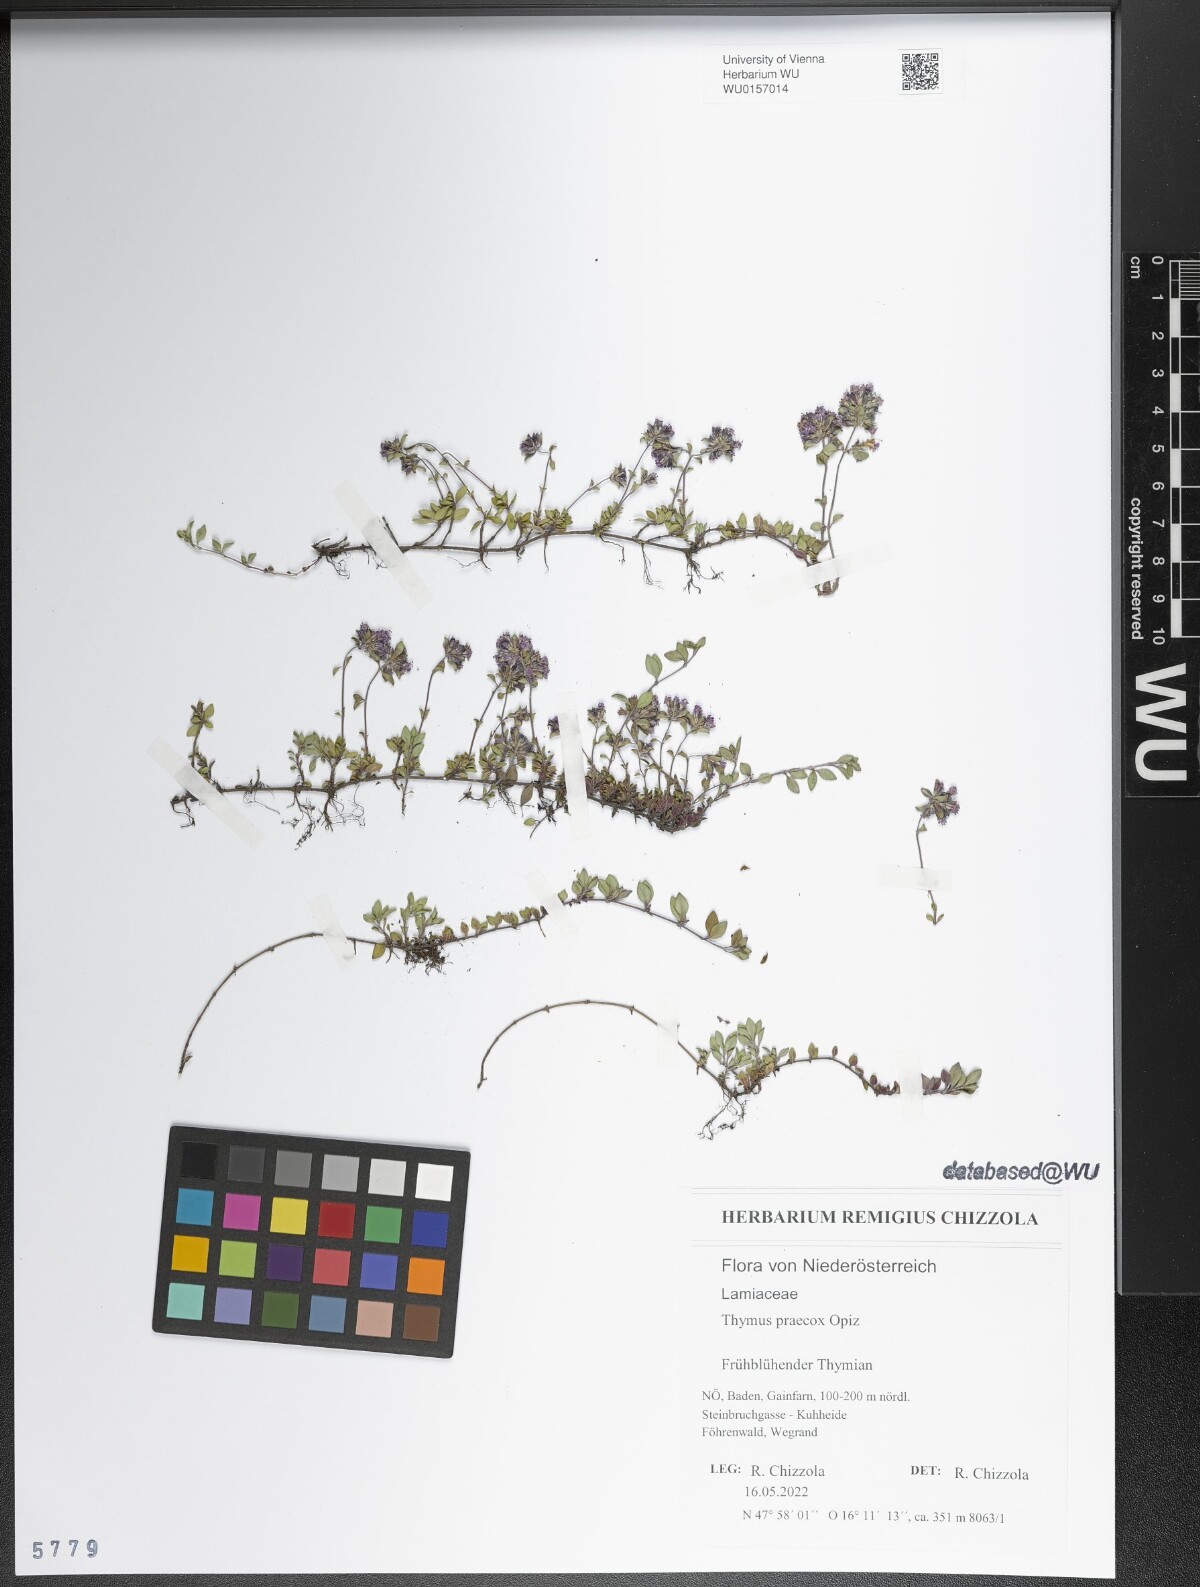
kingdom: Plantae
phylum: Tracheophyta
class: Magnoliopsida
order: Lamiales
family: Lamiaceae
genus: Thymus
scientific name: Thymus praecox
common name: Wild thyme
